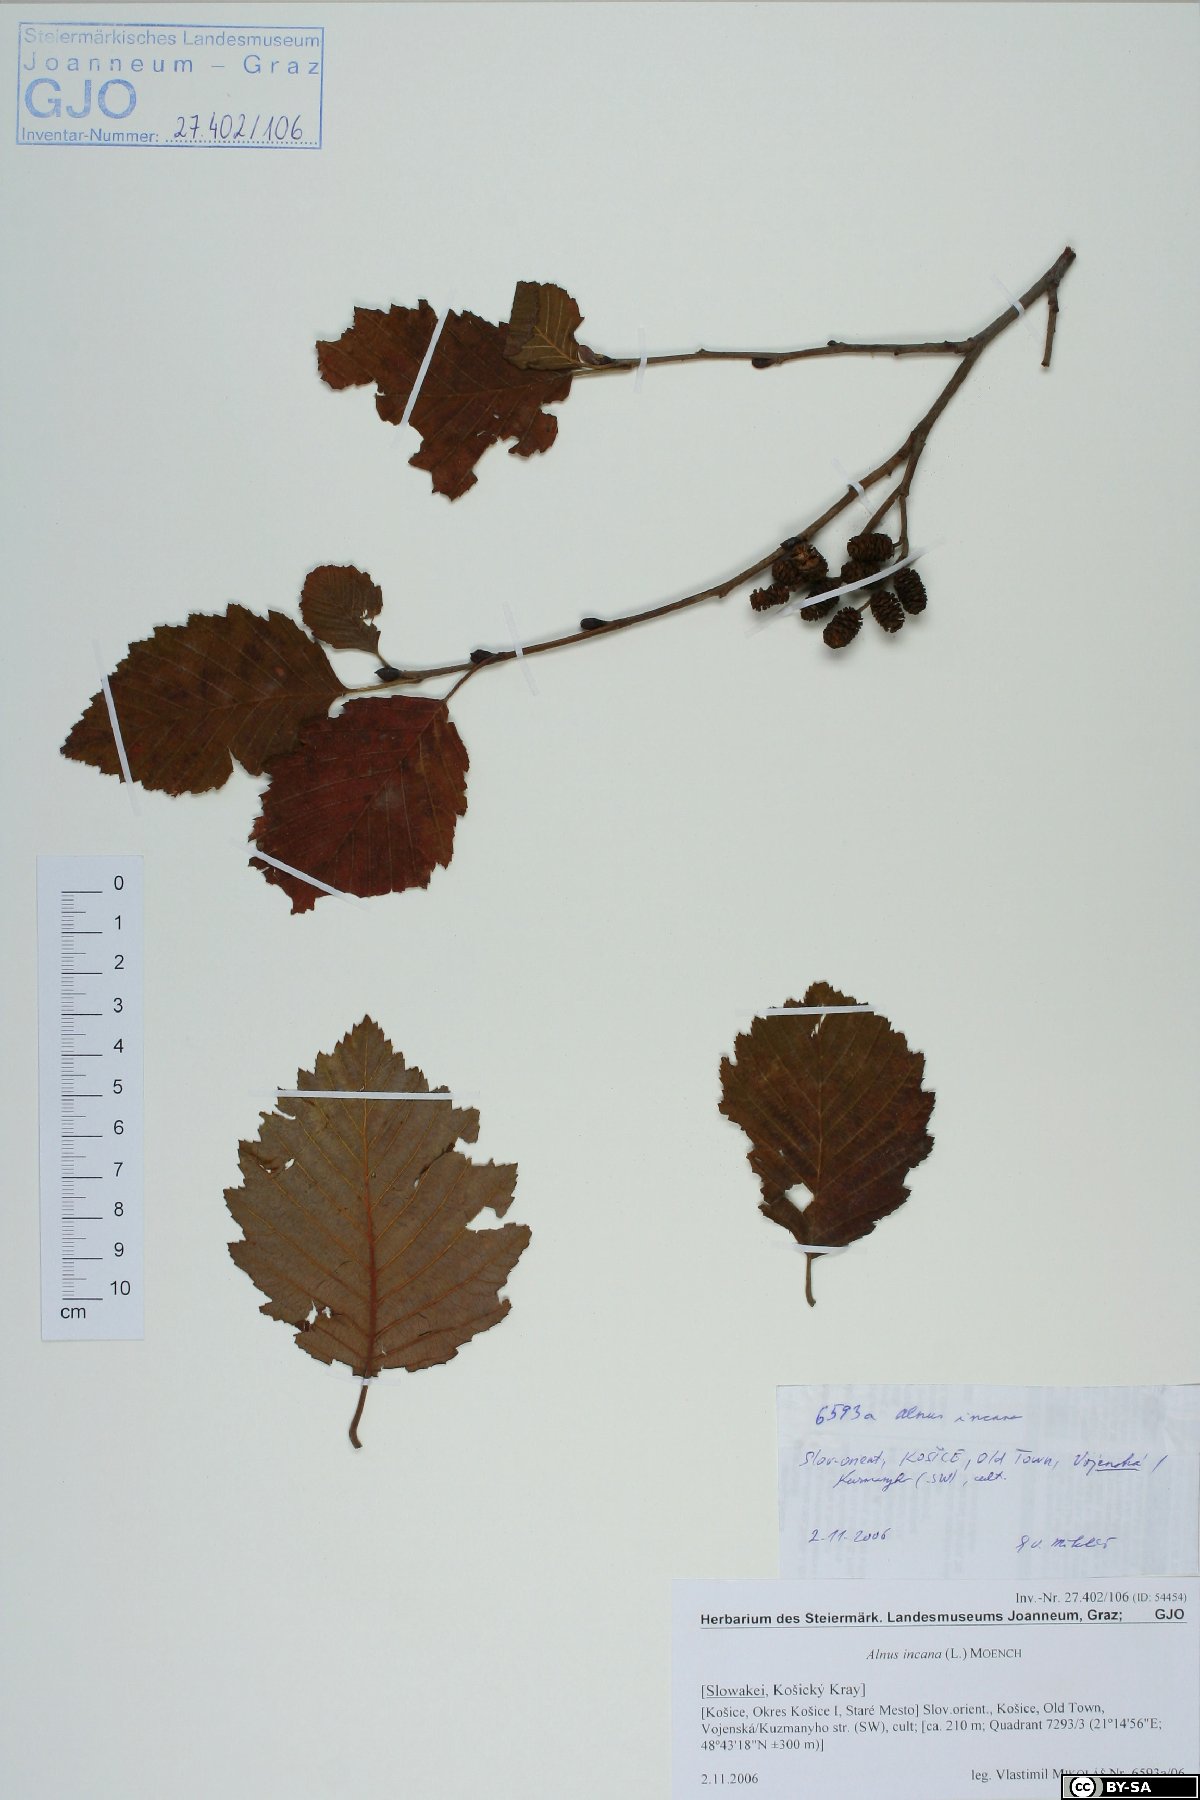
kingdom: Plantae
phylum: Tracheophyta
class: Magnoliopsida
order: Fagales
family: Betulaceae
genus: Alnus
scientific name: Alnus incana
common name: Grey alder
